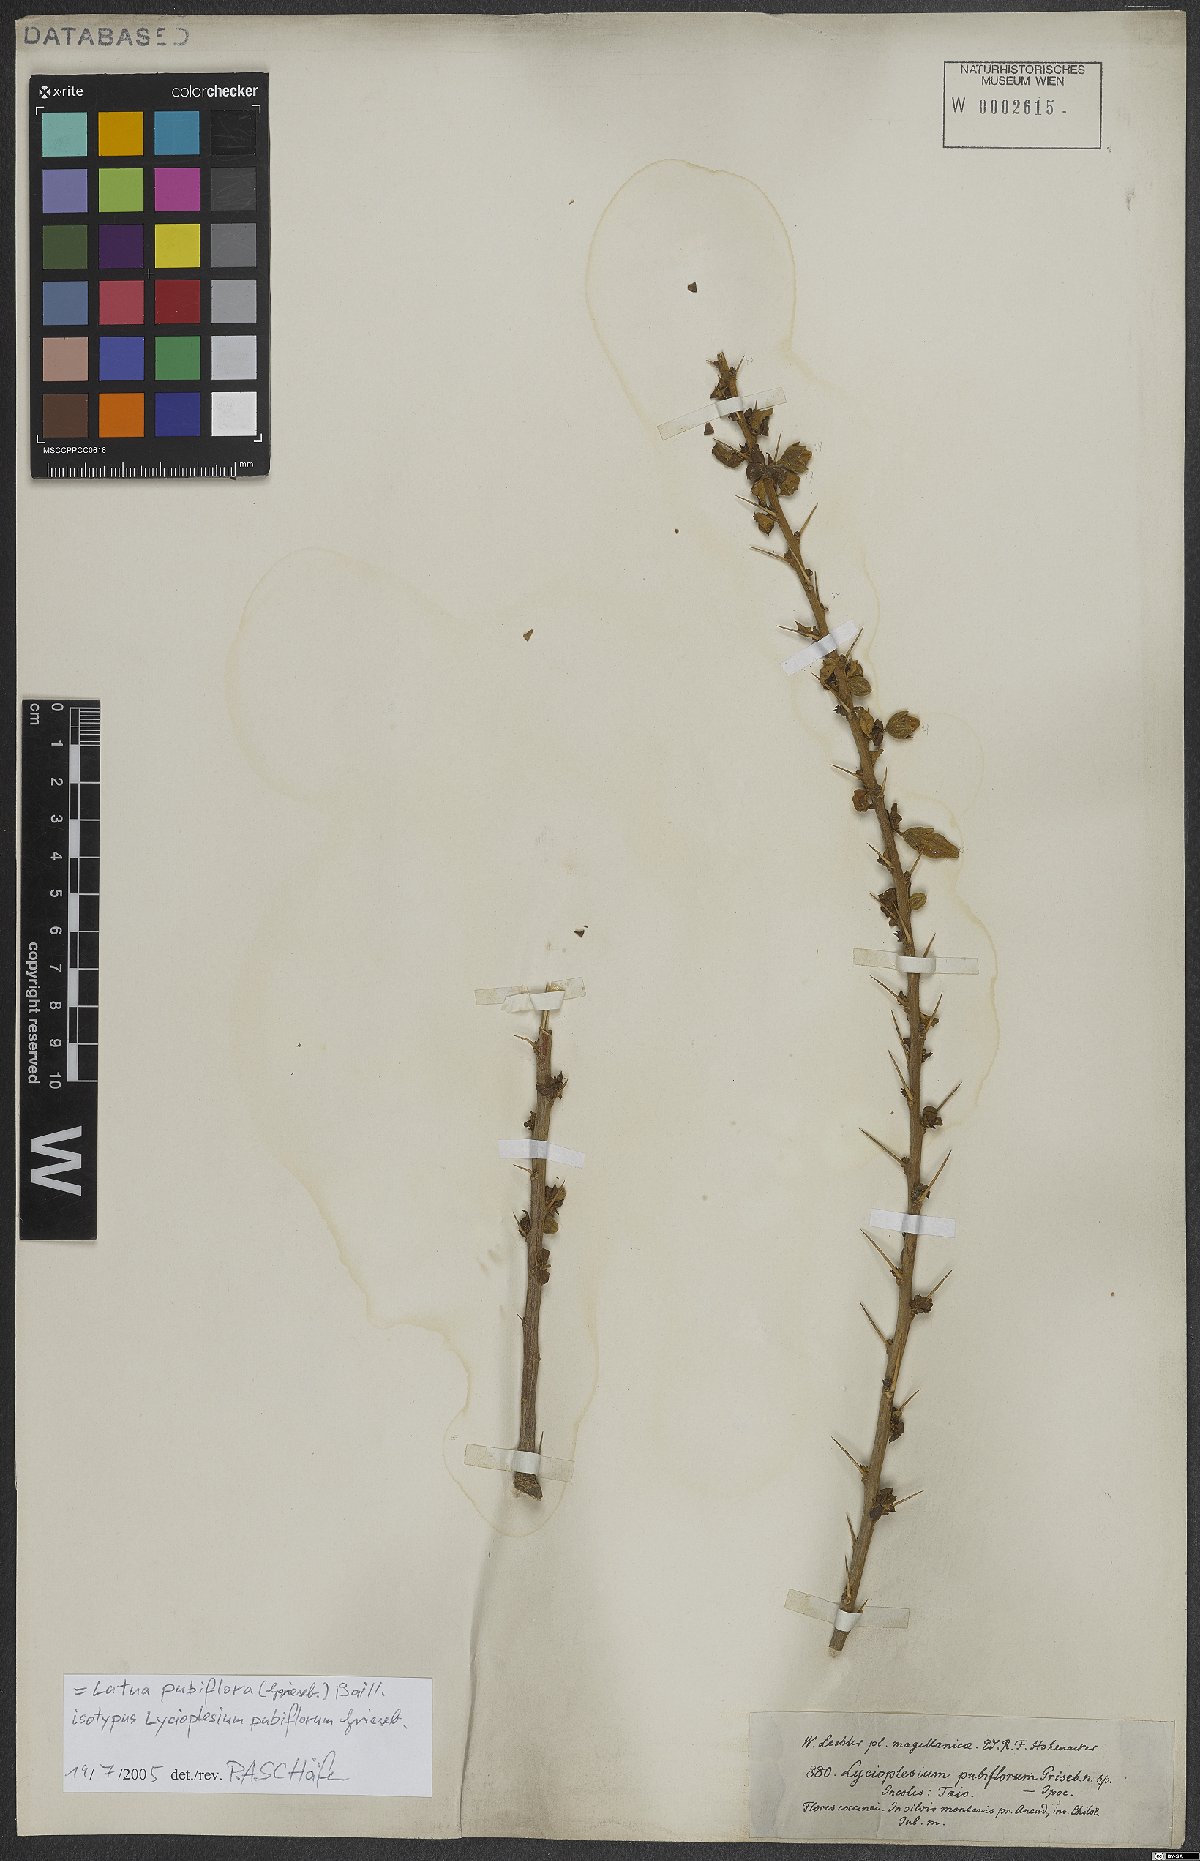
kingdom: Plantae
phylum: Tracheophyta
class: Magnoliopsida
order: Solanales
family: Solanaceae
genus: Latua
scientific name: Latua pubiflora
